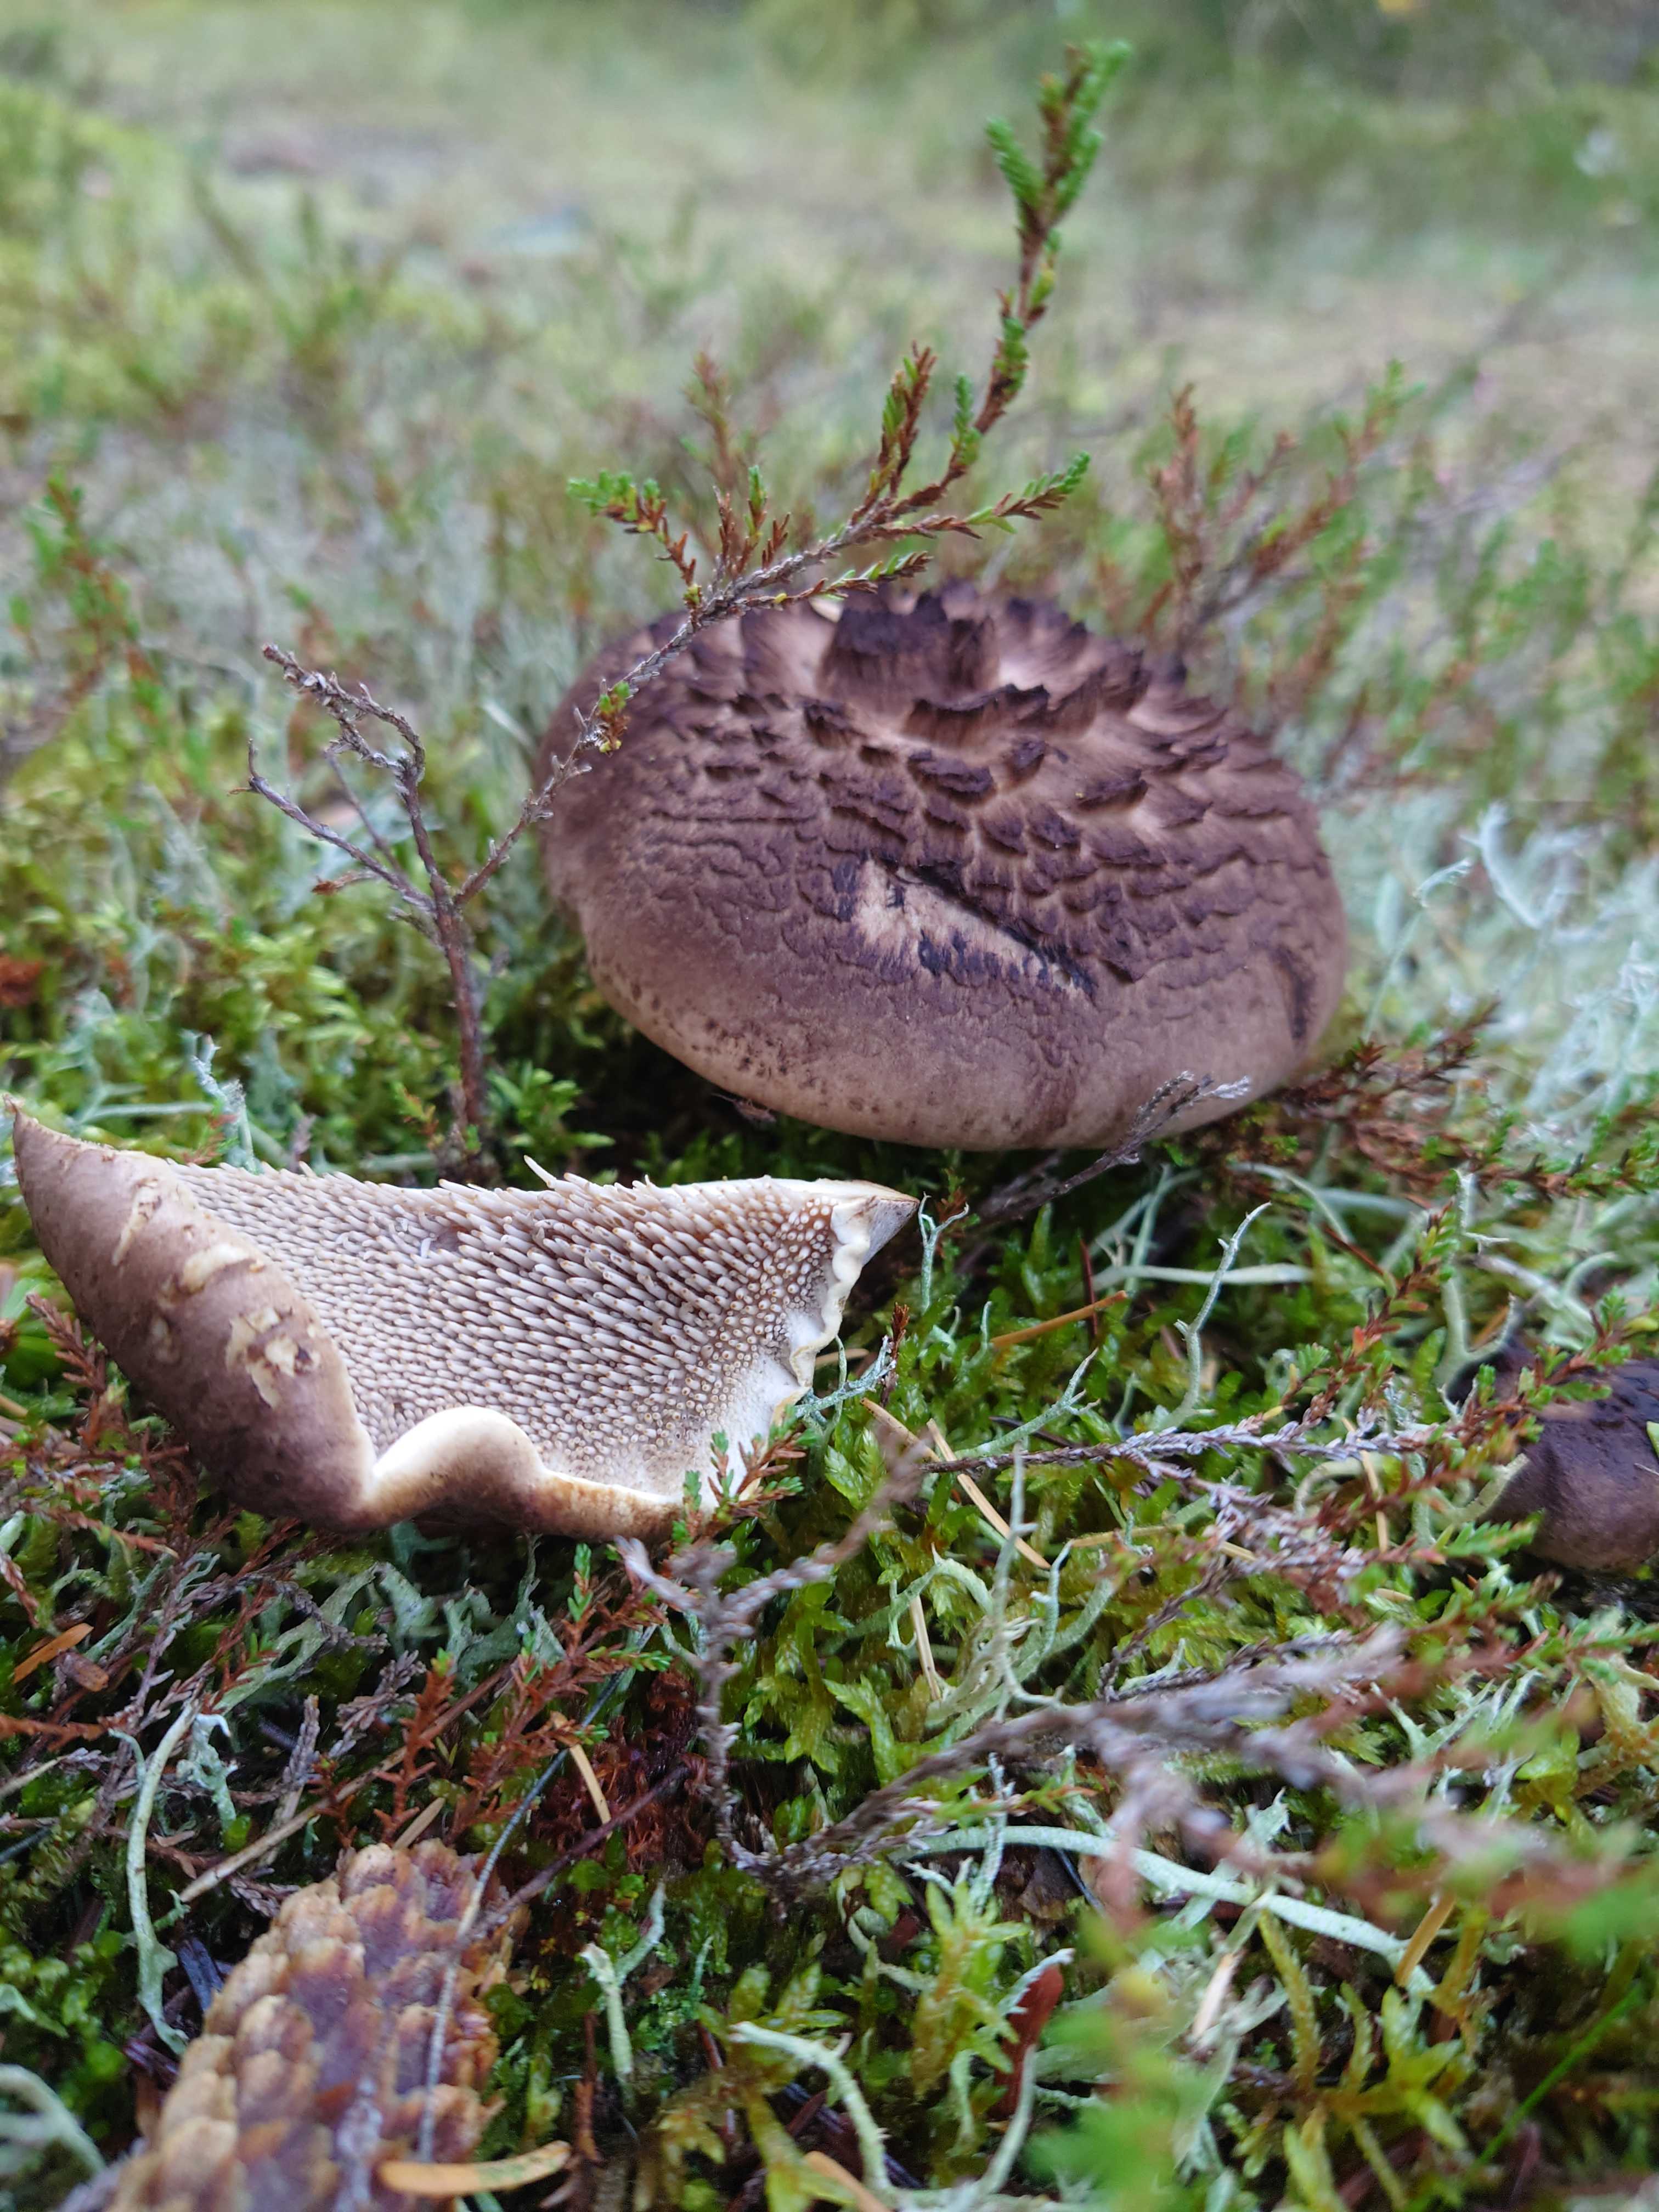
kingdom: Fungi
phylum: Basidiomycota
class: Agaricomycetes
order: Thelephorales
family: Bankeraceae
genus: Sarcodon
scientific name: Sarcodon
